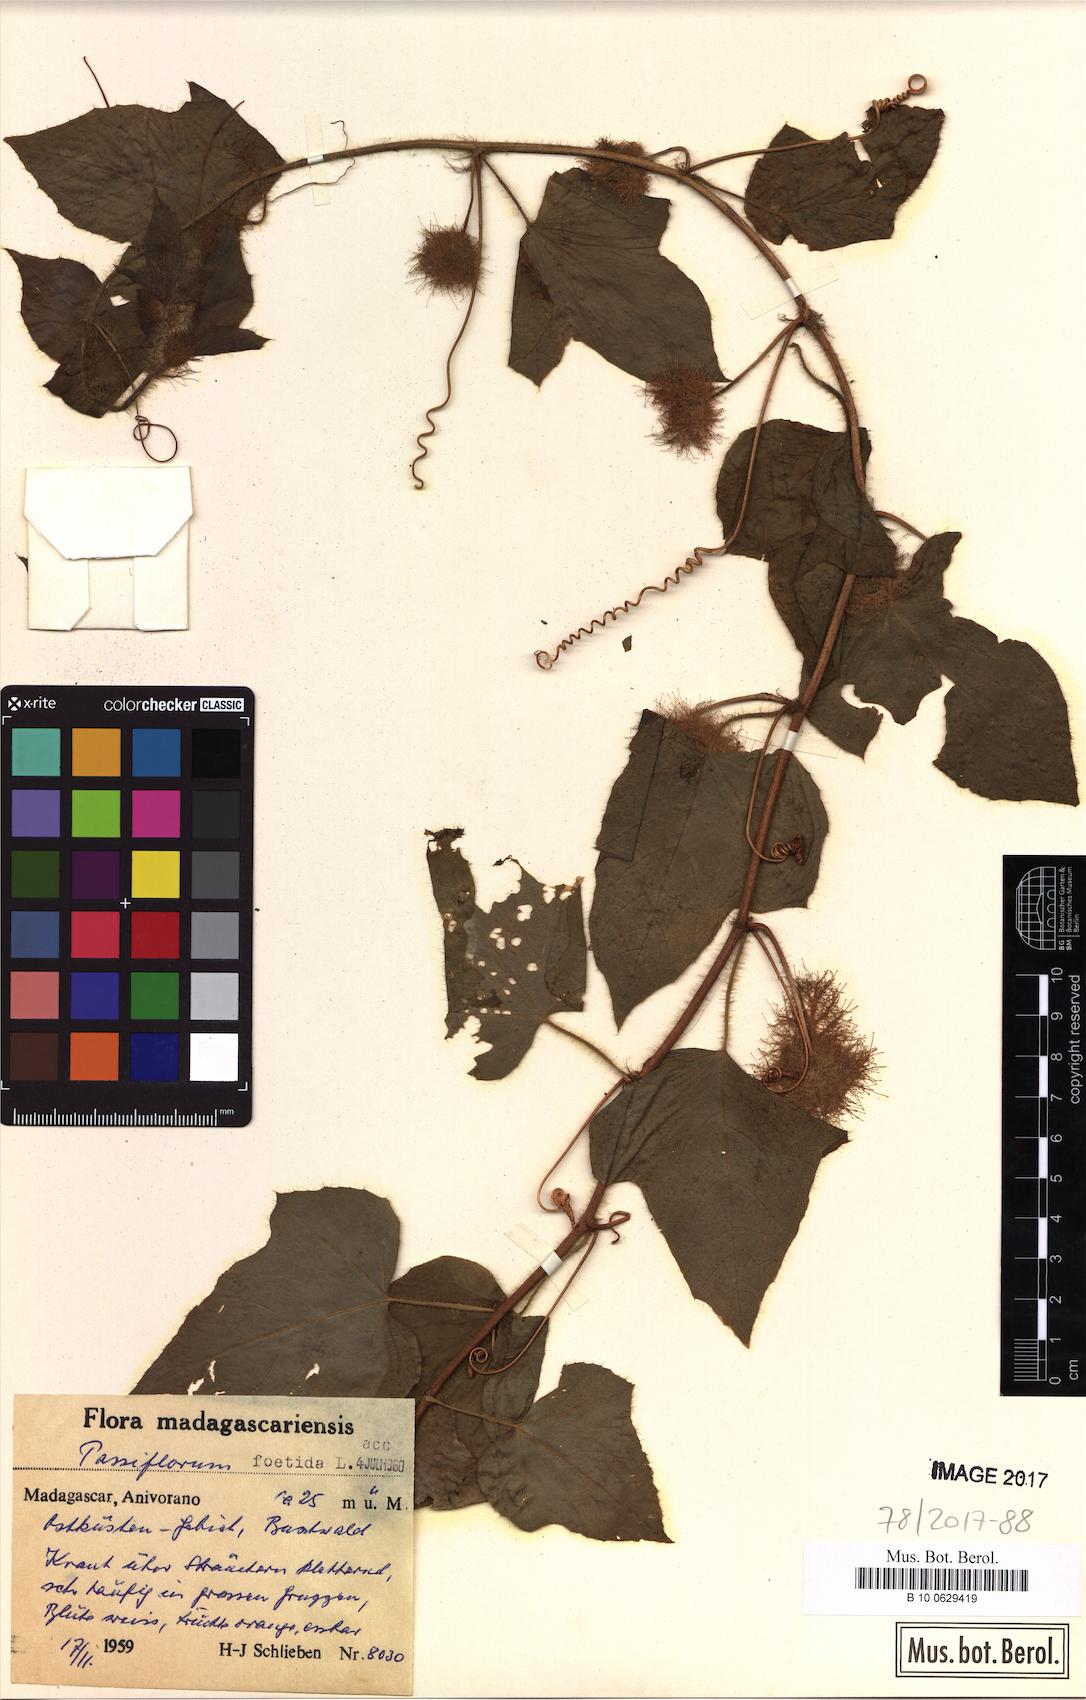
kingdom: Plantae
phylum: Tracheophyta
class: Magnoliopsida
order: Malpighiales
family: Passifloraceae
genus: Passiflora
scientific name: Passiflora foetida
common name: Fetid passionflower
